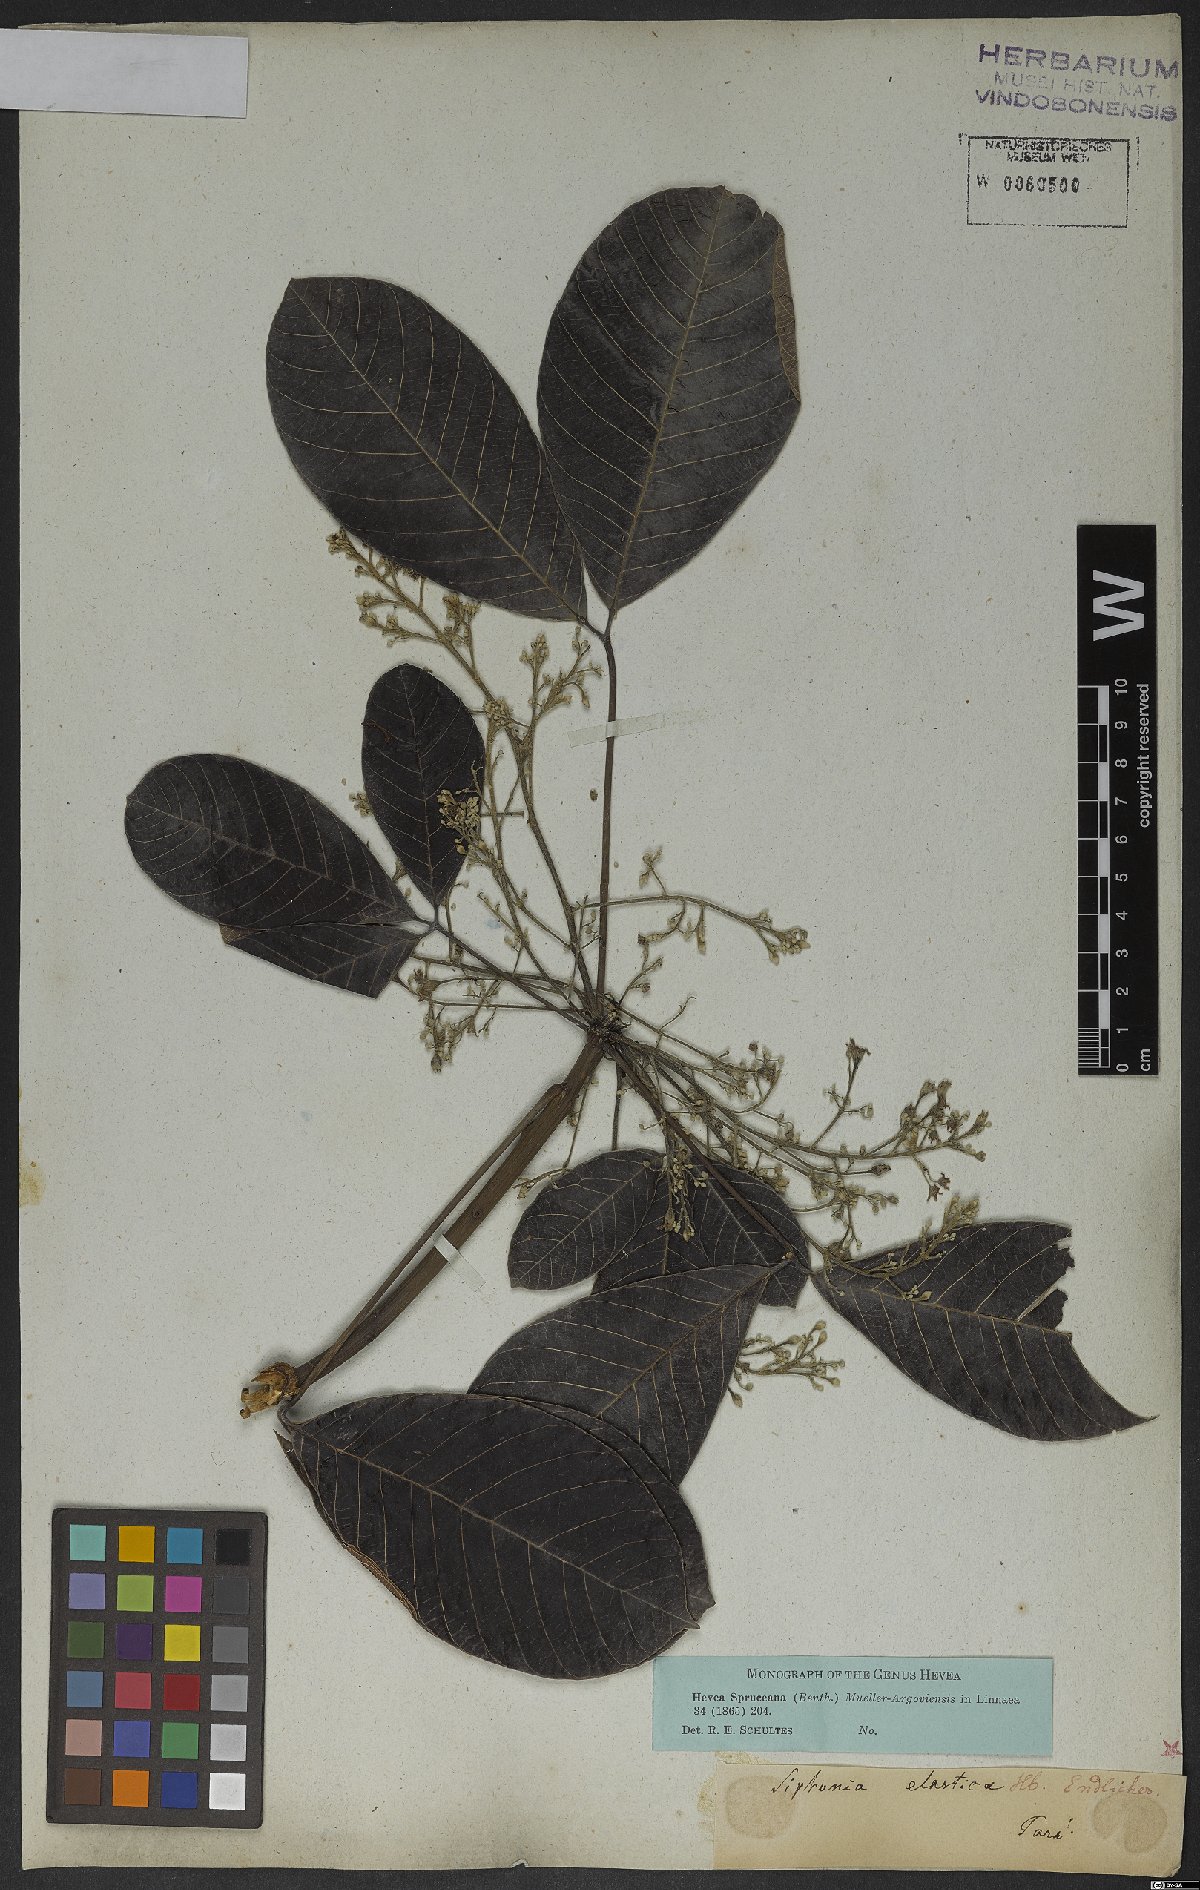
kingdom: Plantae
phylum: Tracheophyta
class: Magnoliopsida
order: Malpighiales
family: Euphorbiaceae
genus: Hevea
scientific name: Hevea spruceana
